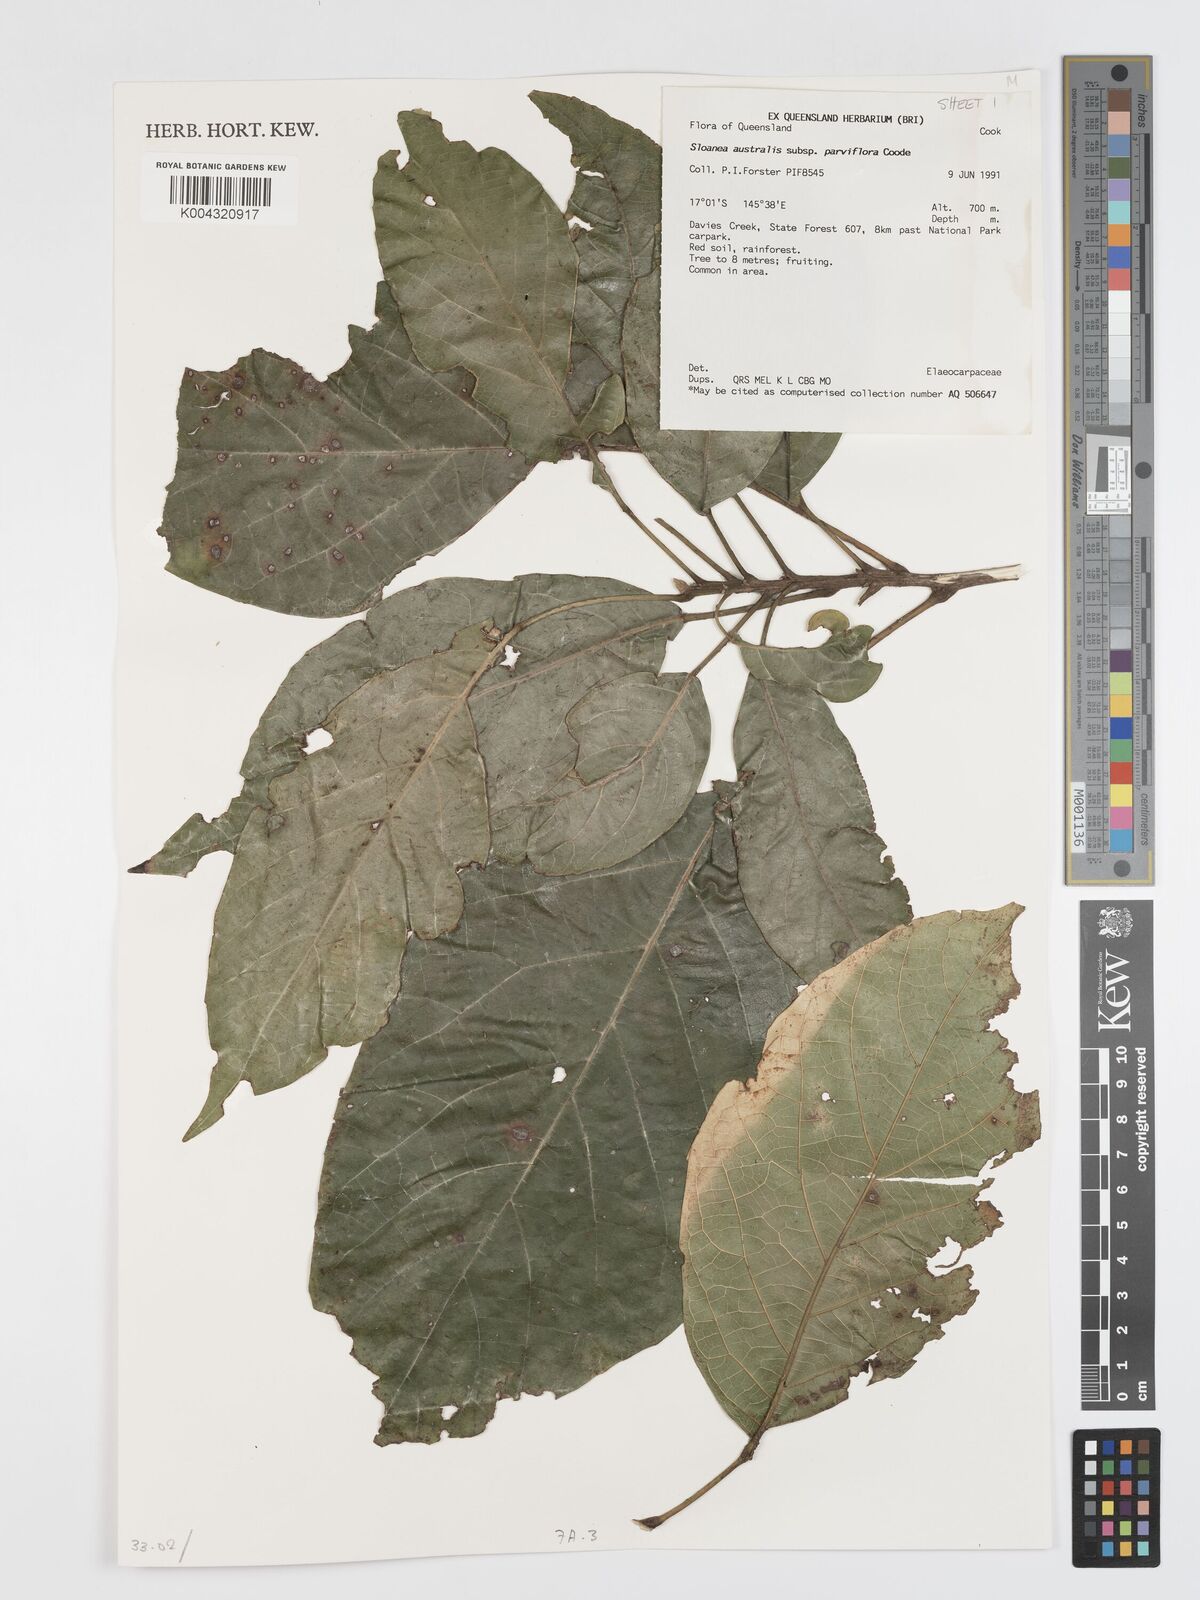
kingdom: Plantae
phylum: Tracheophyta
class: Magnoliopsida
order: Oxalidales
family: Elaeocarpaceae
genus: Sloanea
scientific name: Sloanea australis
